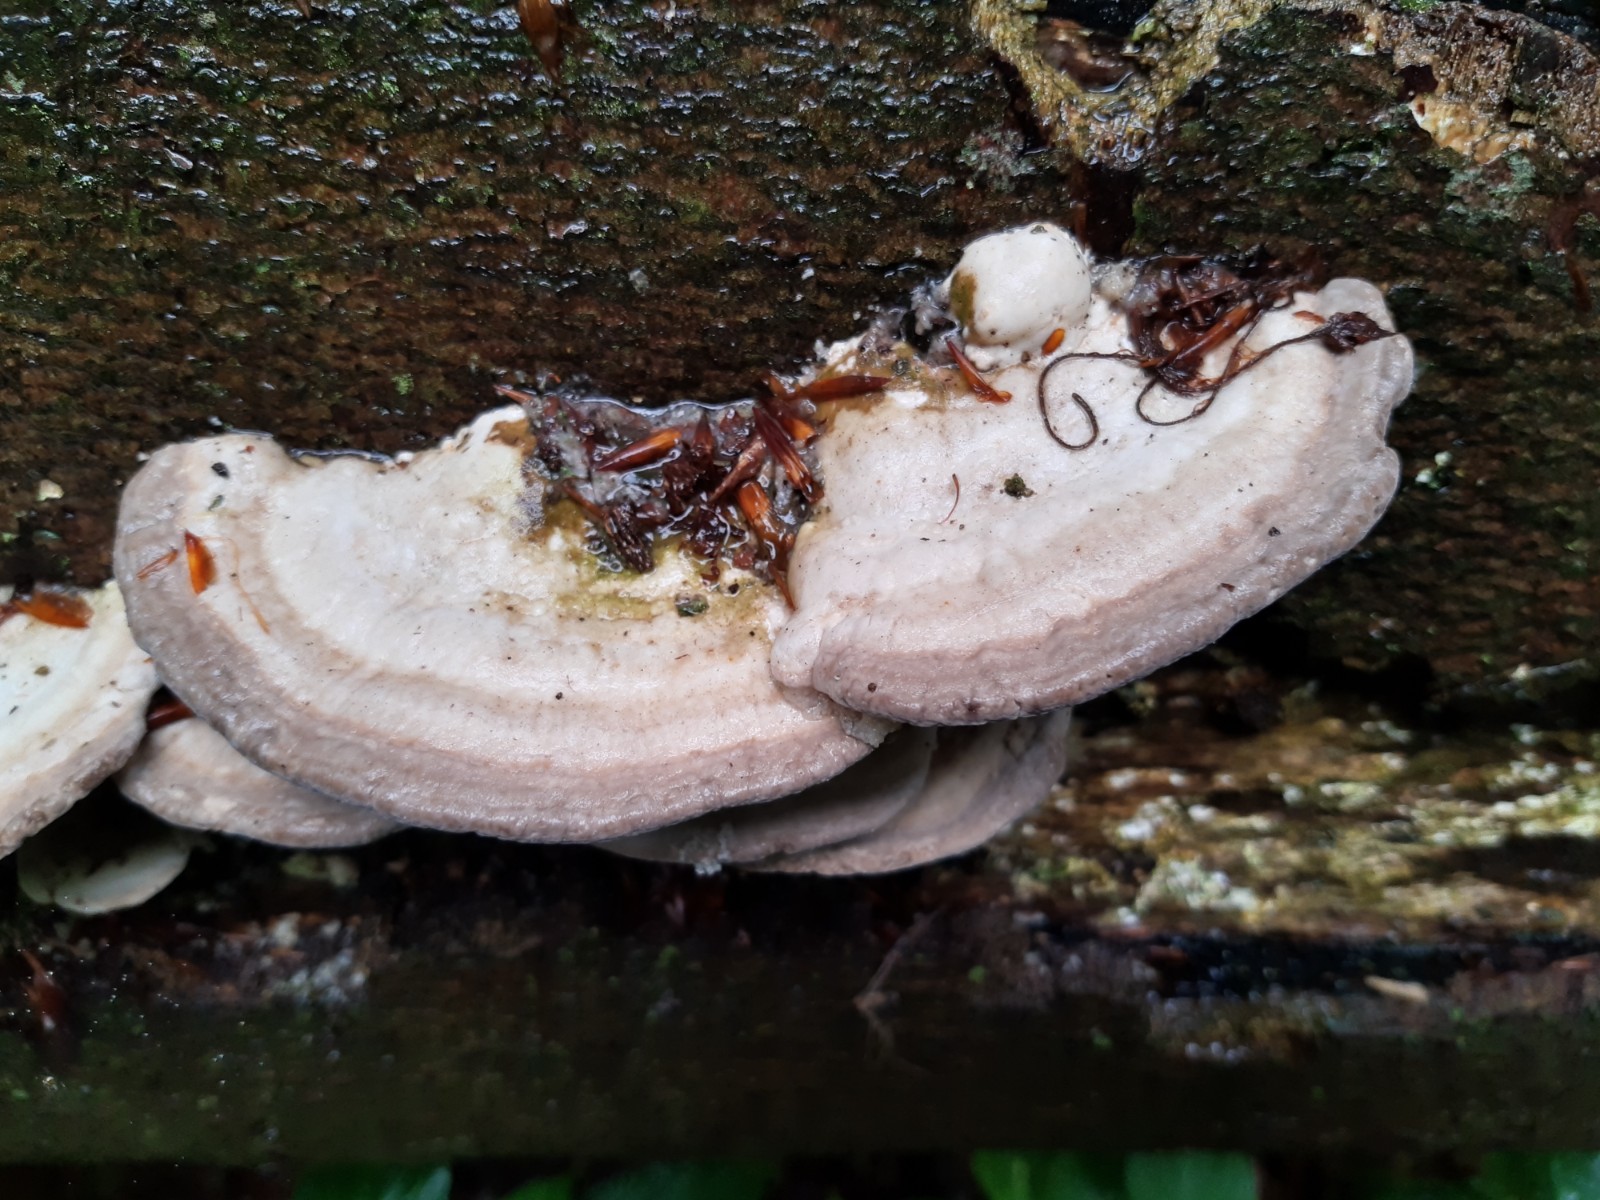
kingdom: Fungi
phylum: Basidiomycota
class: Agaricomycetes
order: Polyporales
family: Polyporaceae
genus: Trametes
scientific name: Trametes gibbosa
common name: puklet læderporesvamp
